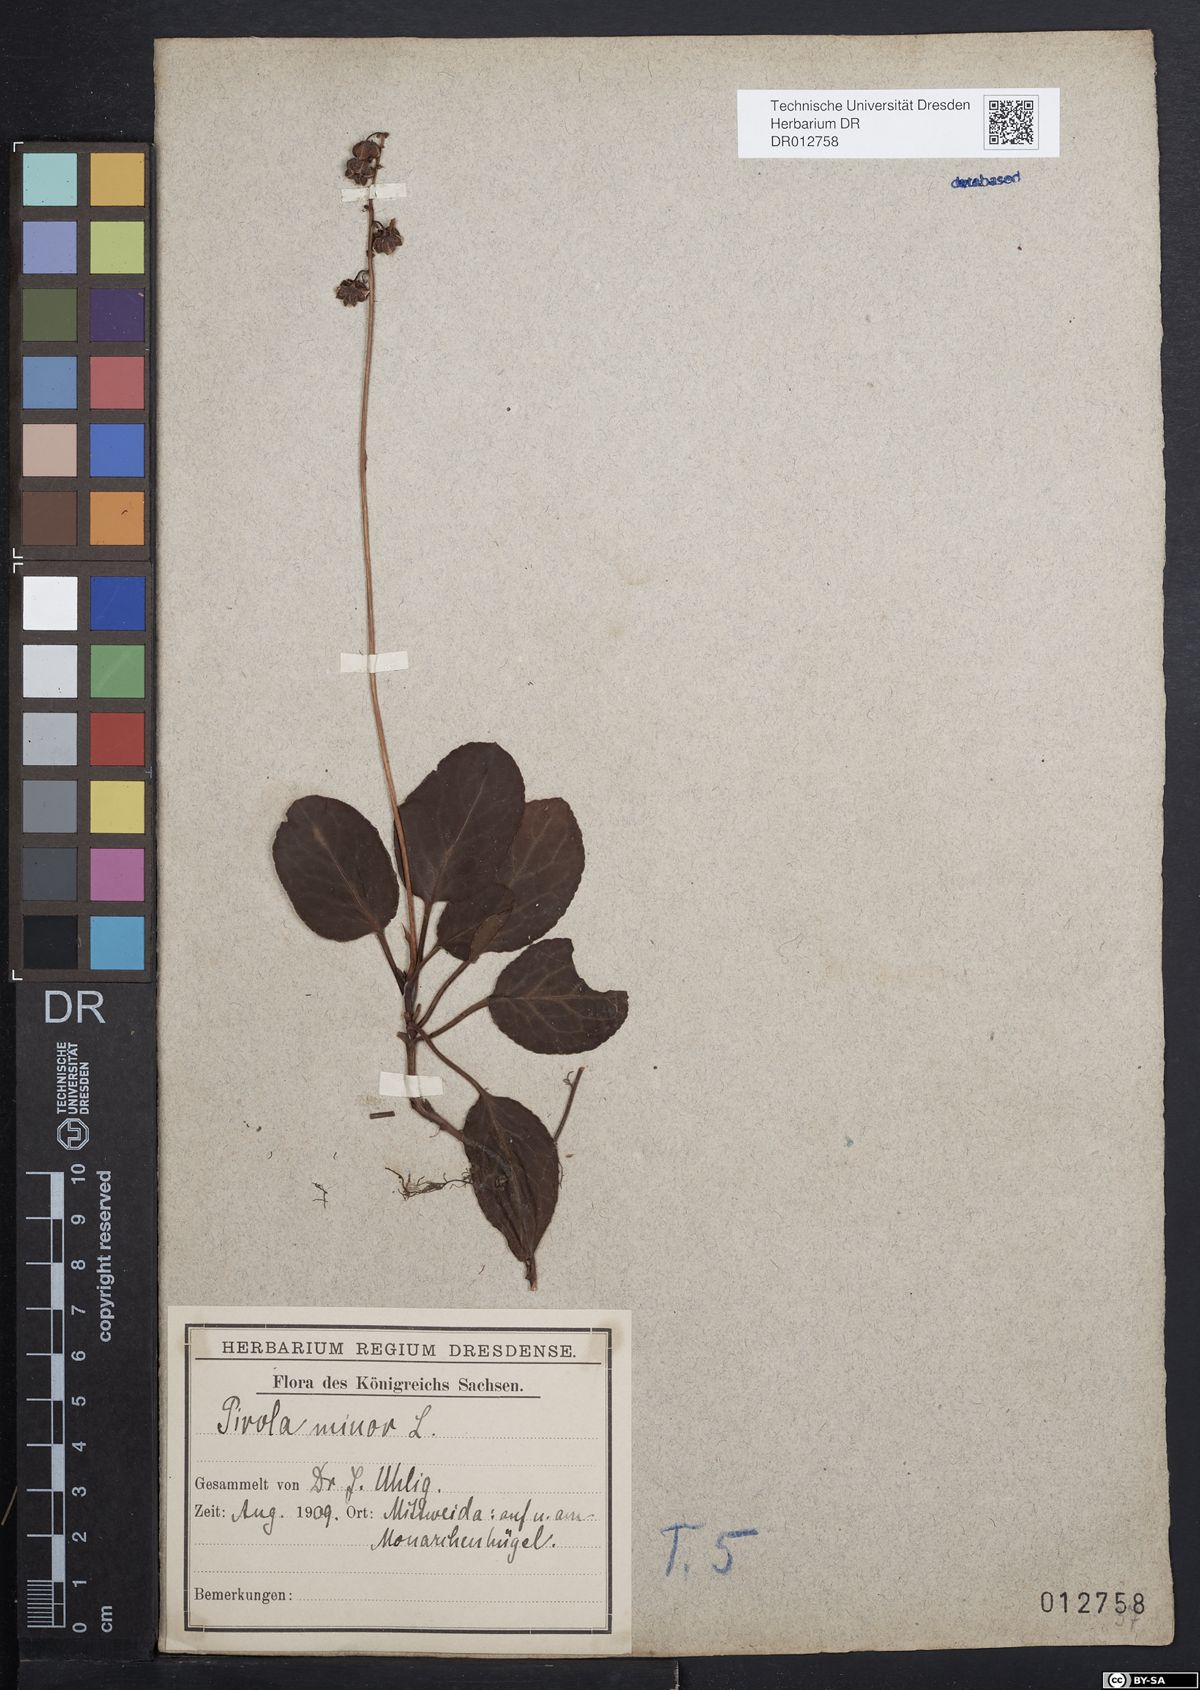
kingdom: Plantae
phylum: Tracheophyta
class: Magnoliopsida
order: Ericales
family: Ericaceae
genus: Pyrola
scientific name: Pyrola minor
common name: Common wintergreen
